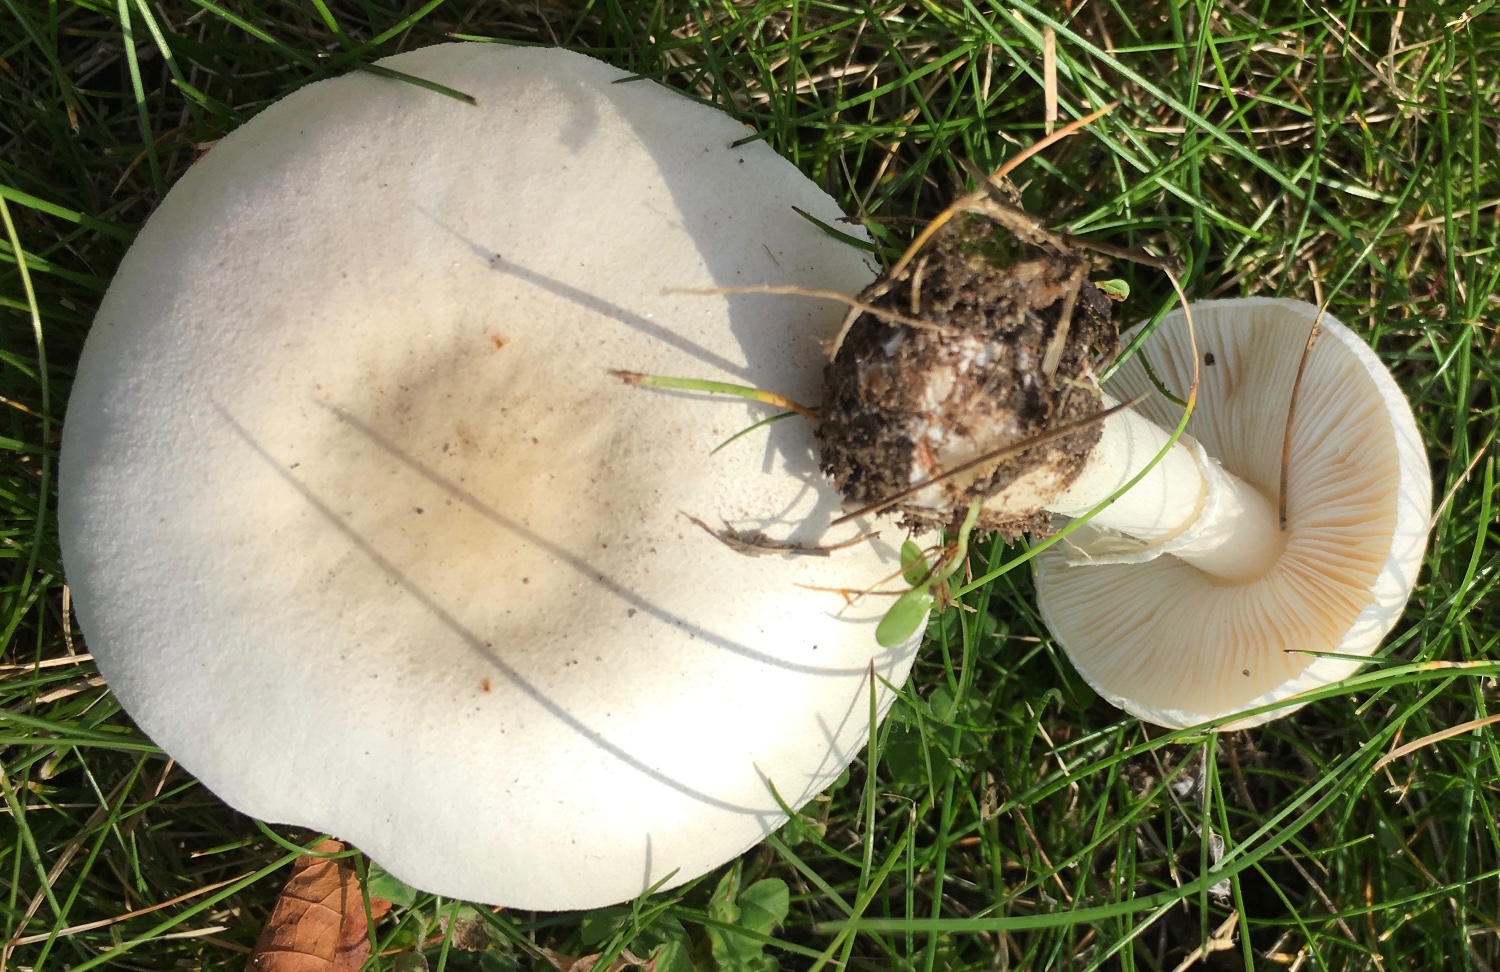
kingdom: Fungi
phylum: Basidiomycota
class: Agaricomycetes
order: Agaricales
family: Agaricaceae
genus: Leucoagaricus
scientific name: Leucoagaricus leucothites
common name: rosabladet silkehat
